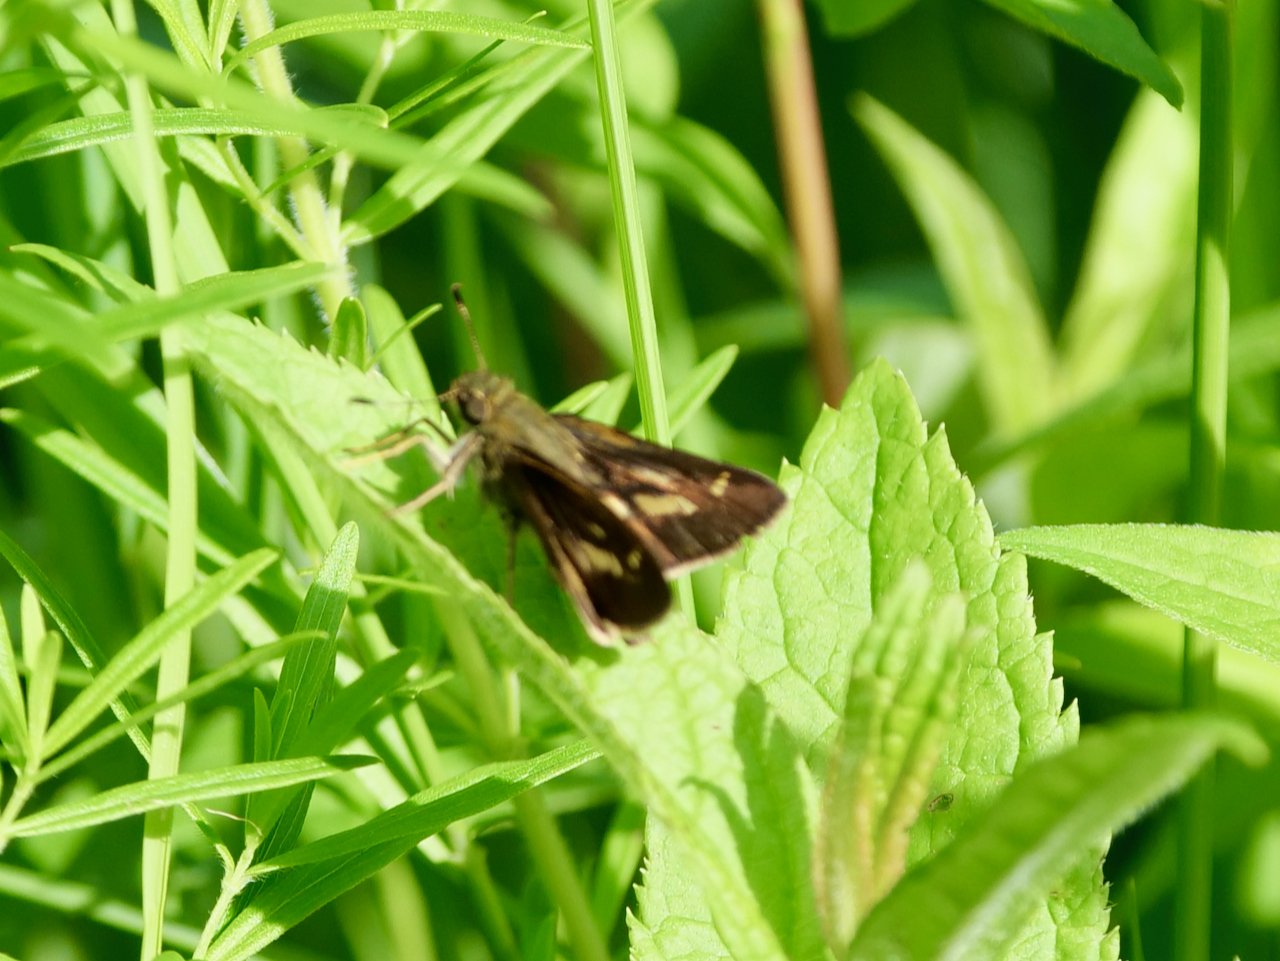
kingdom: Animalia
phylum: Arthropoda
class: Insecta
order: Lepidoptera
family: Hesperiidae
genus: Vernia
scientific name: Vernia verna
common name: Little Glassywing
